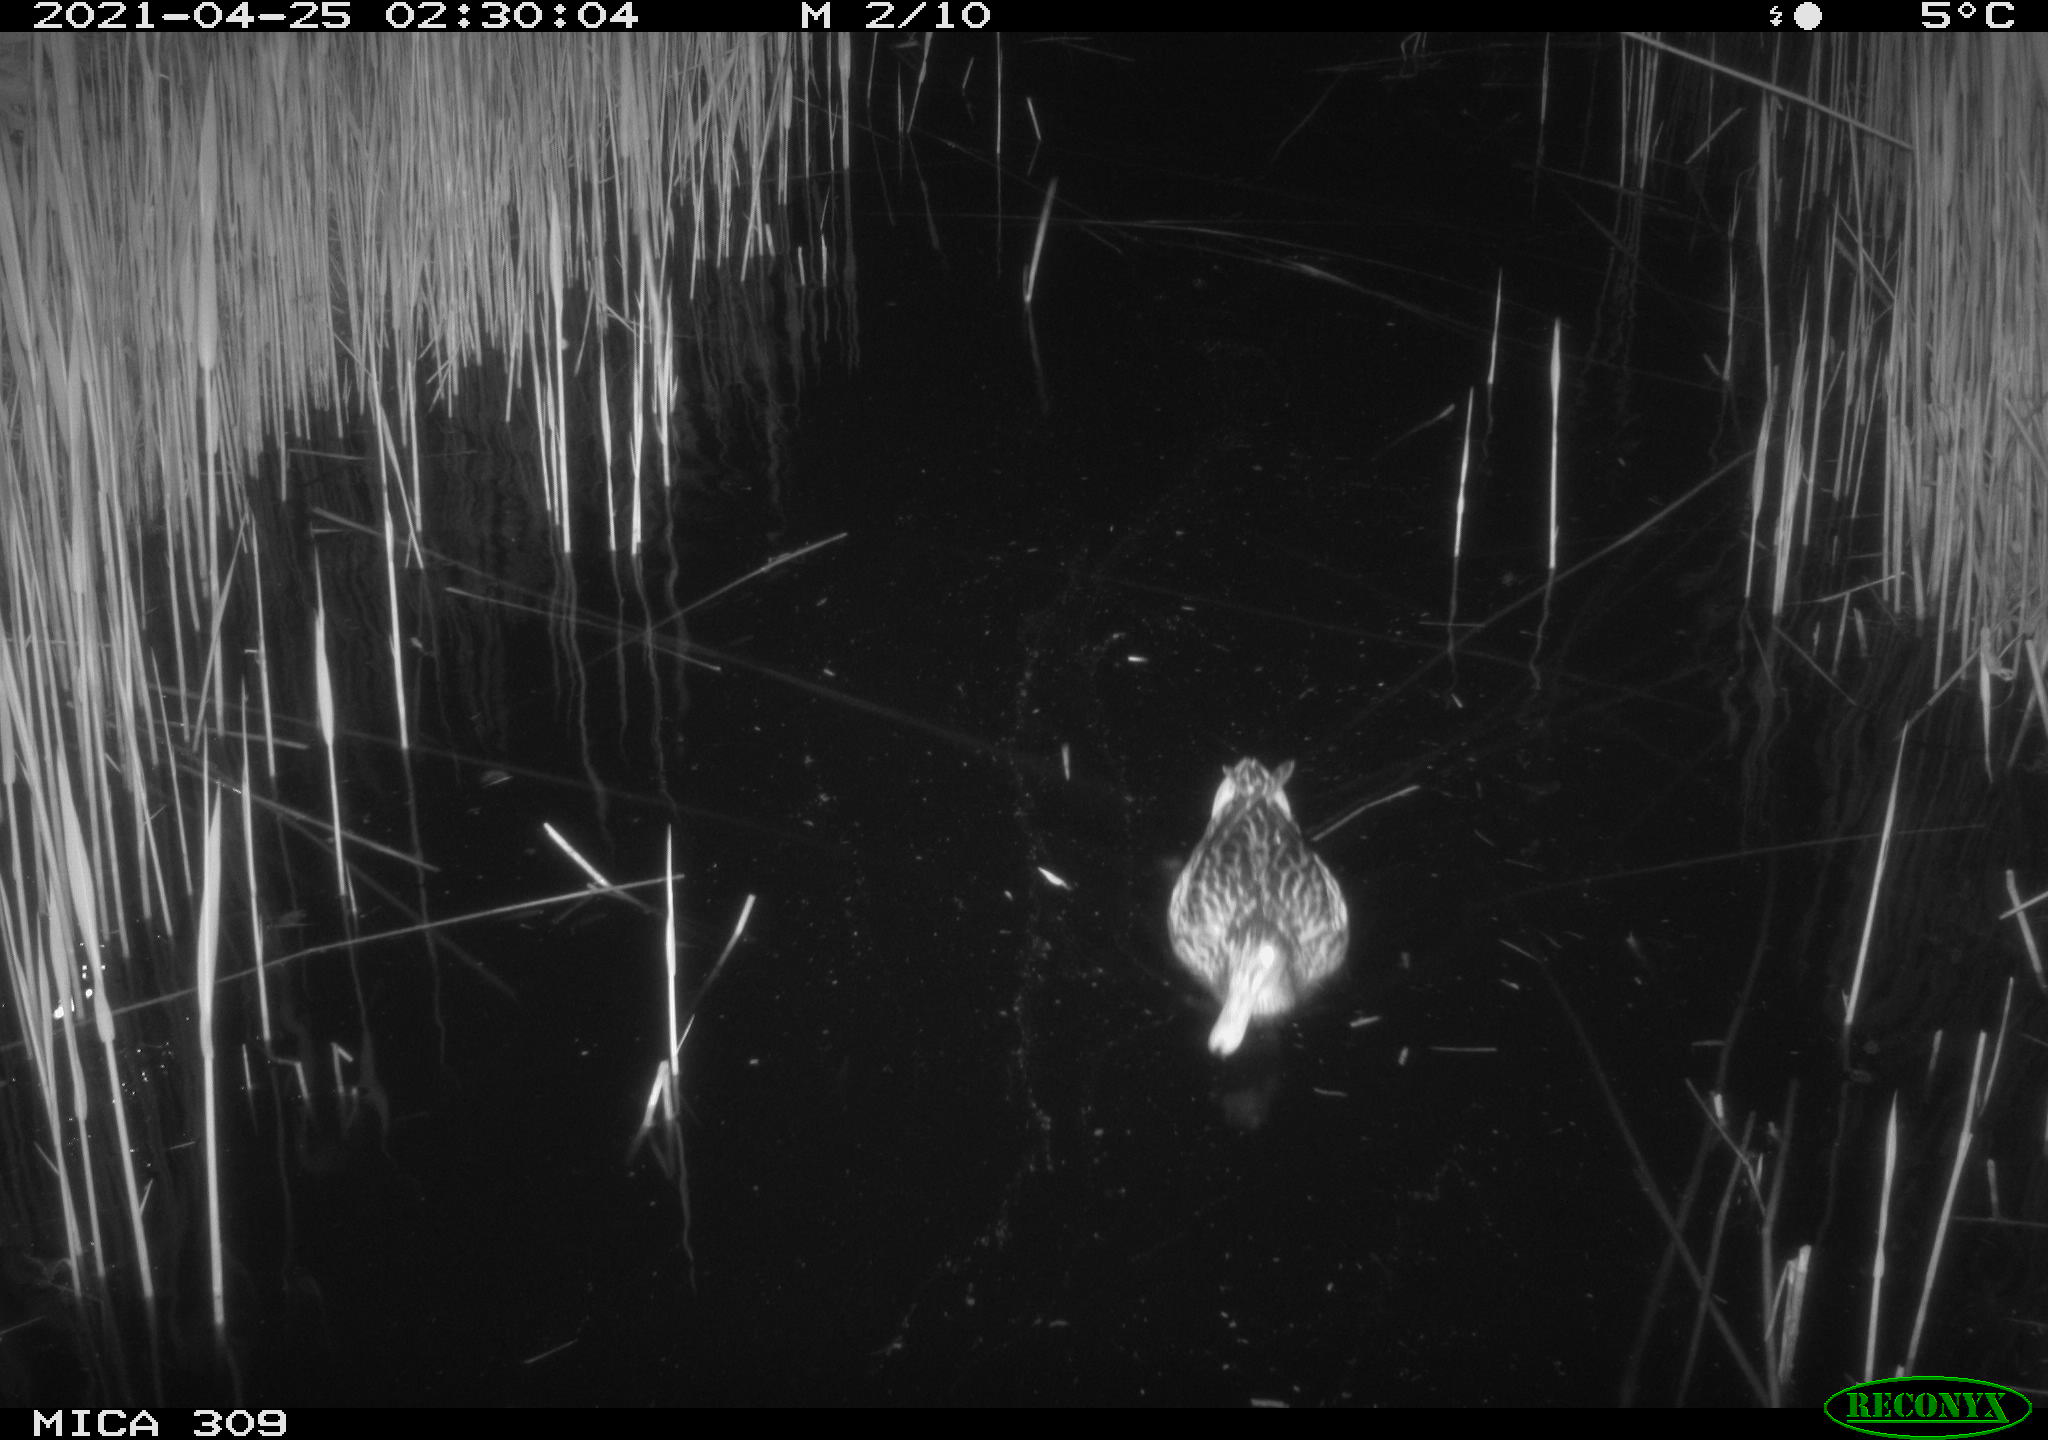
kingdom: Animalia
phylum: Chordata
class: Aves
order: Anseriformes
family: Anatidae
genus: Anas
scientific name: Anas platyrhynchos
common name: Mallard
